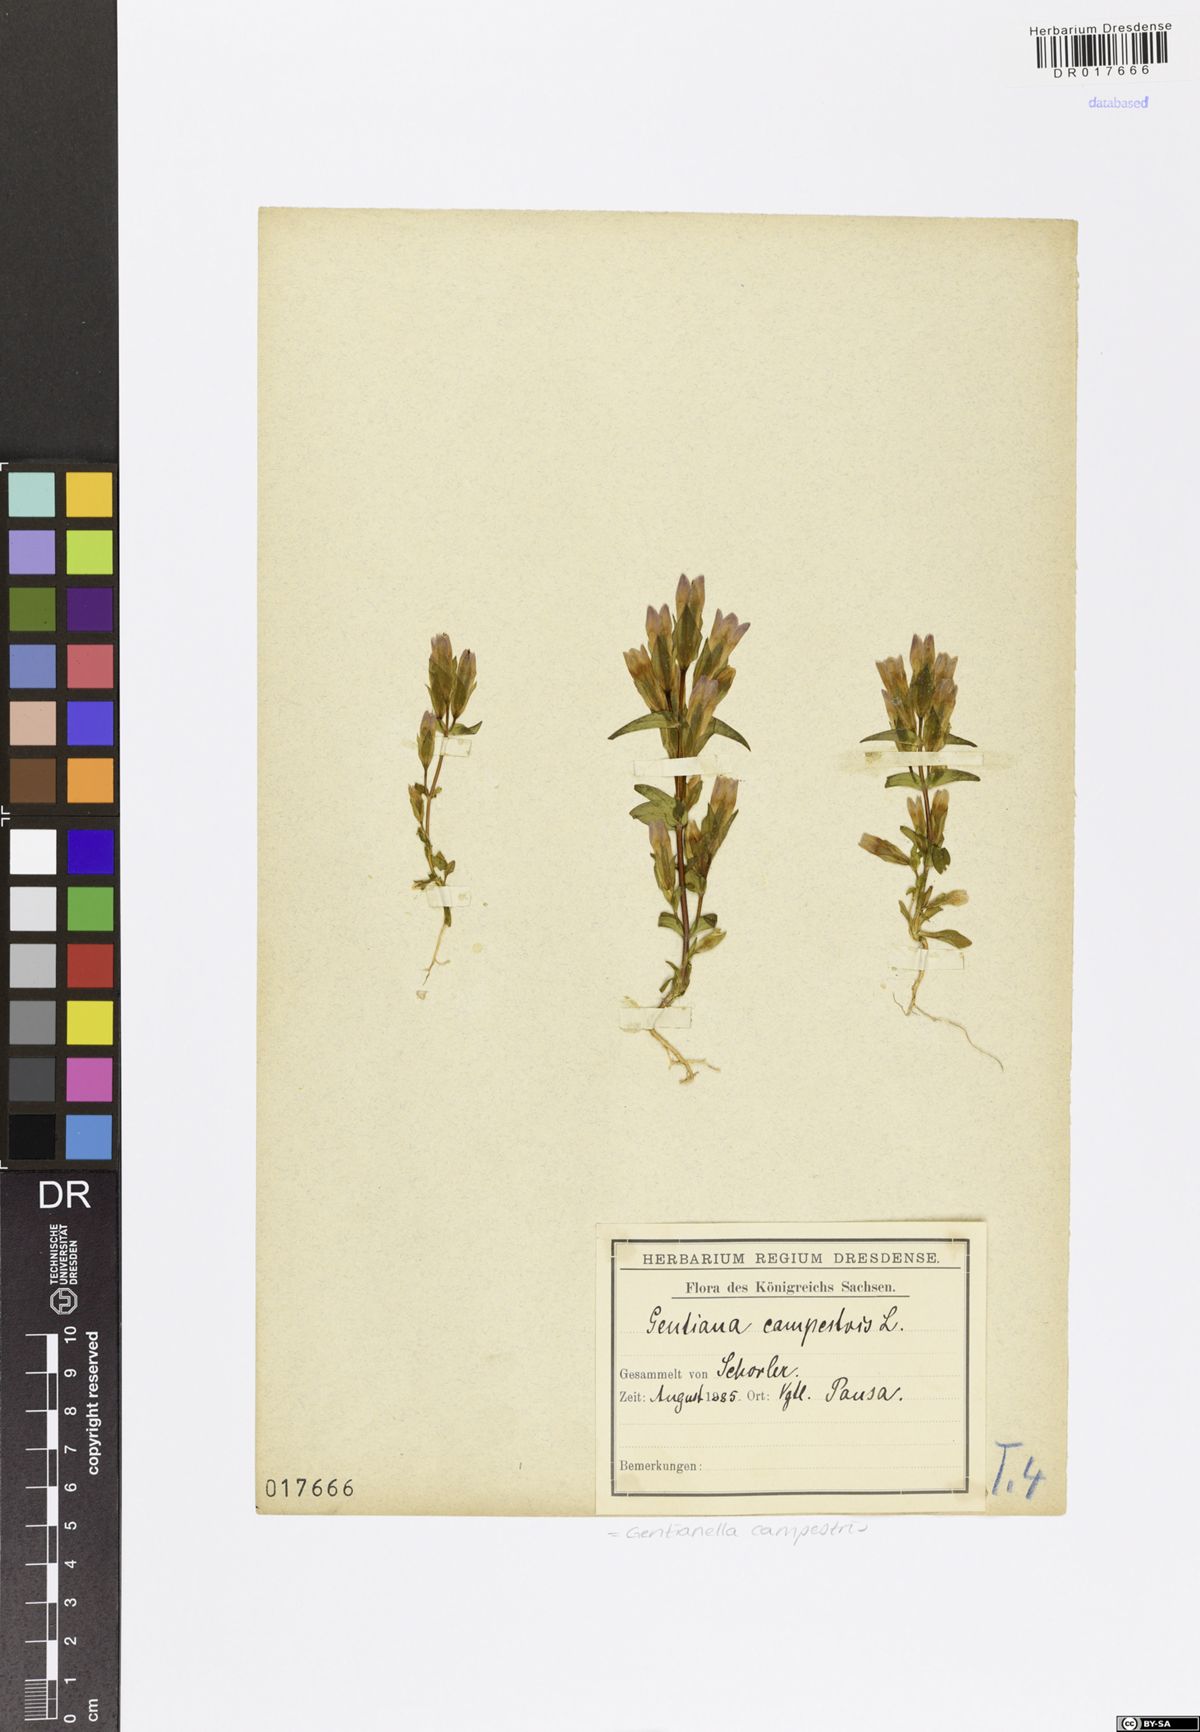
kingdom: Plantae
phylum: Tracheophyta
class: Magnoliopsida
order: Gentianales
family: Gentianaceae
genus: Gentianella
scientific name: Gentianella campestris
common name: Field gentian
